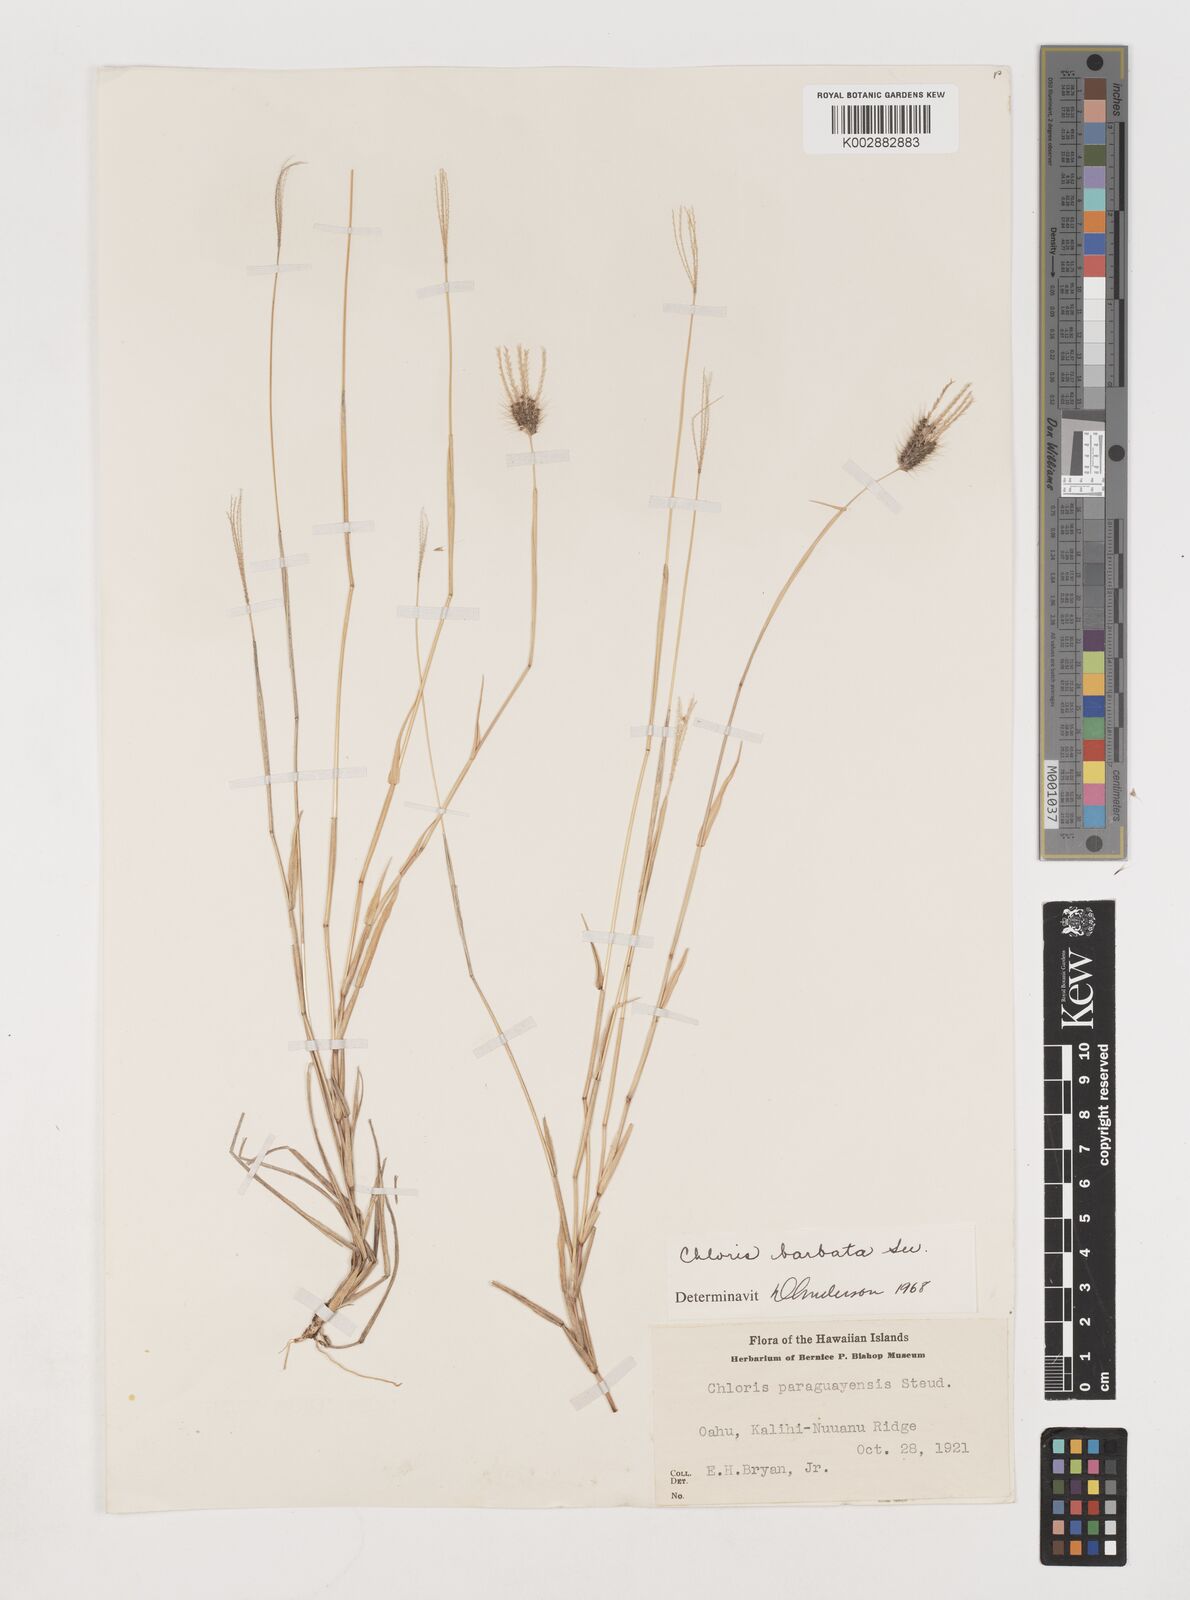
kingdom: Plantae
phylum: Tracheophyta
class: Liliopsida
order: Poales
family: Poaceae
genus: Chloris
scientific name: Chloris barbata
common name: Swollen fingergrass
